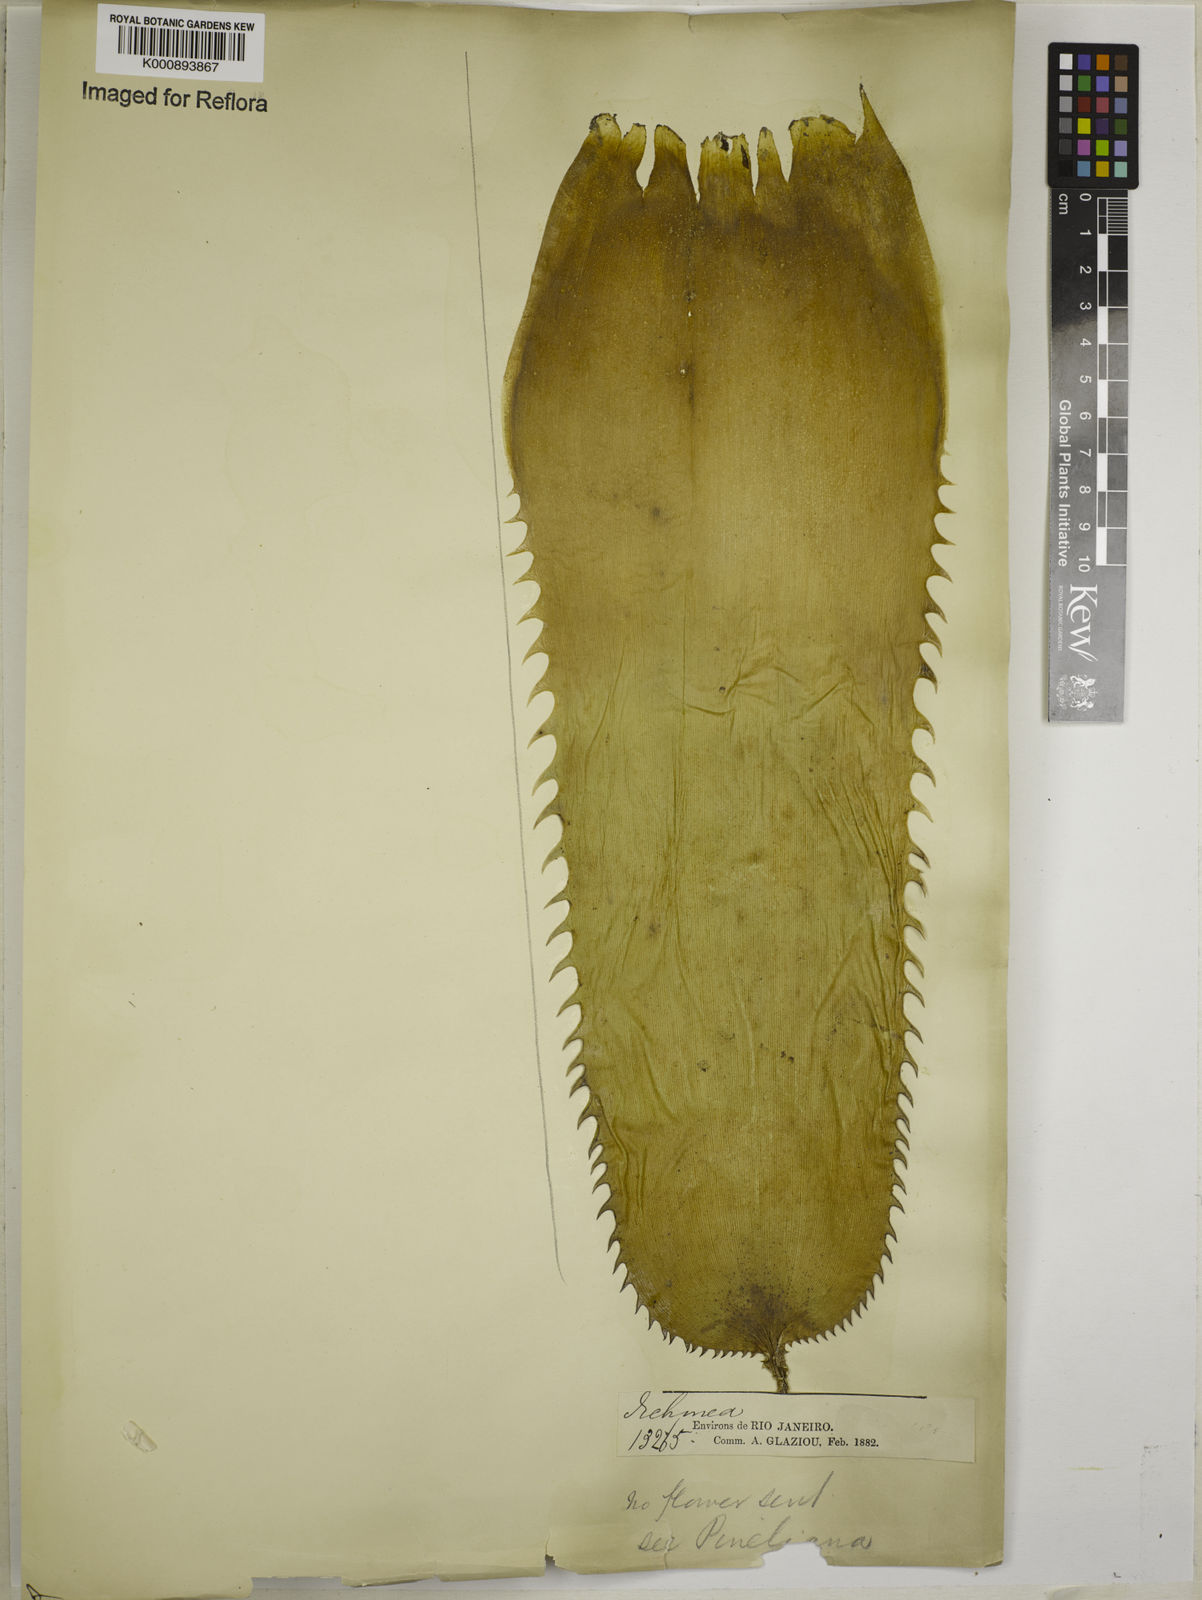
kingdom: Plantae
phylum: Tracheophyta
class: Liliopsida
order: Poales
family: Bromeliaceae
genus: Aechmea
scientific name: Aechmea
